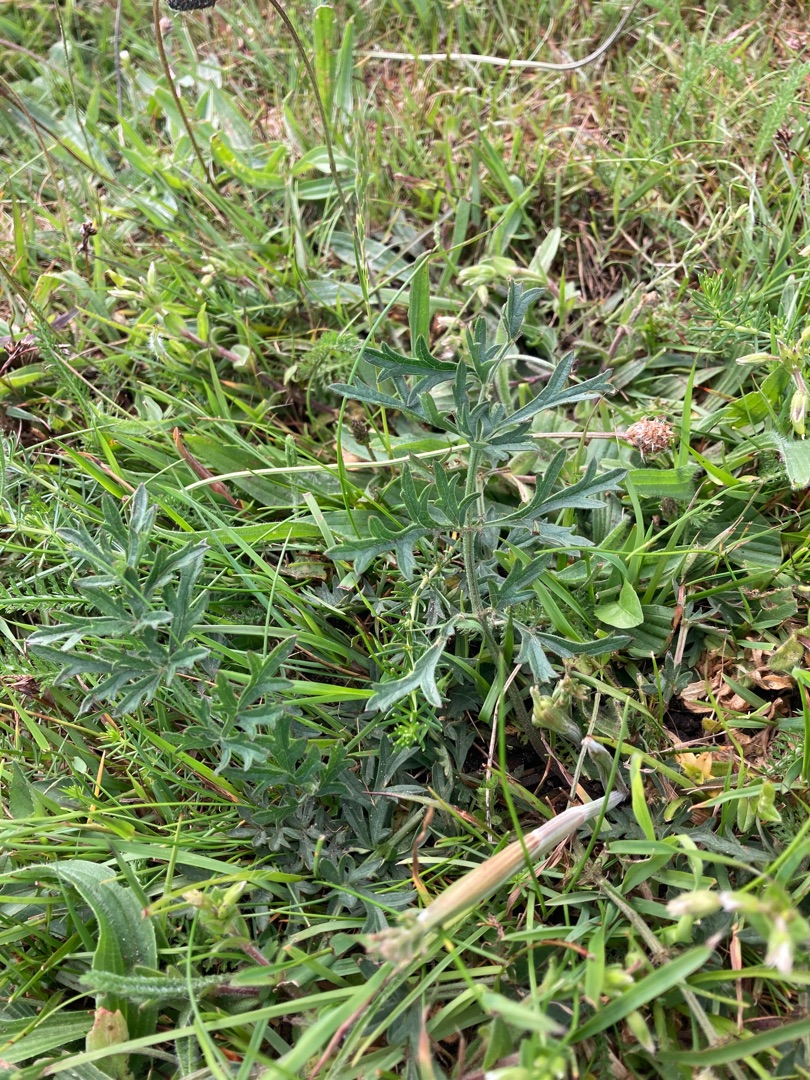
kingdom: Plantae
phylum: Tracheophyta
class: Magnoliopsida
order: Apiales
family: Apiaceae
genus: Pimpinella
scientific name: Pimpinella saxifraga
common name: Almindelig pimpinelle
